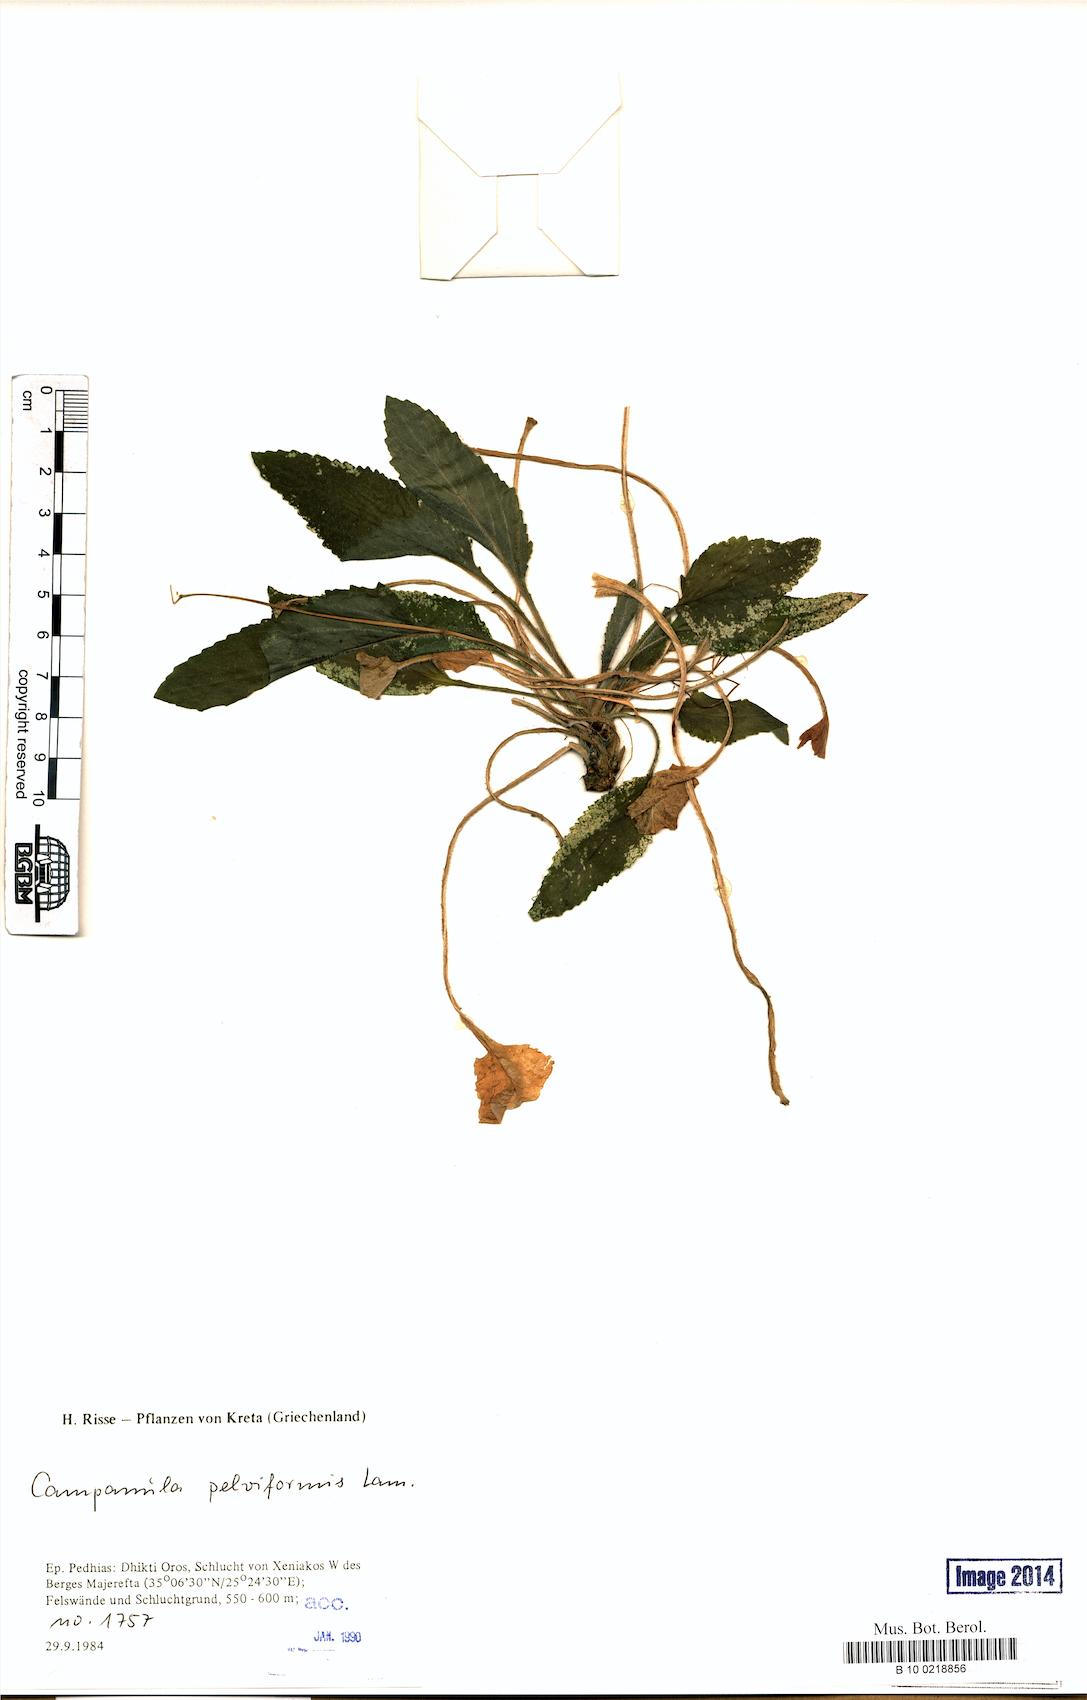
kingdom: Plantae
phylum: Tracheophyta
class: Magnoliopsida
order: Asterales
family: Campanulaceae
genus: Campanula
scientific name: Campanula pelviformis
